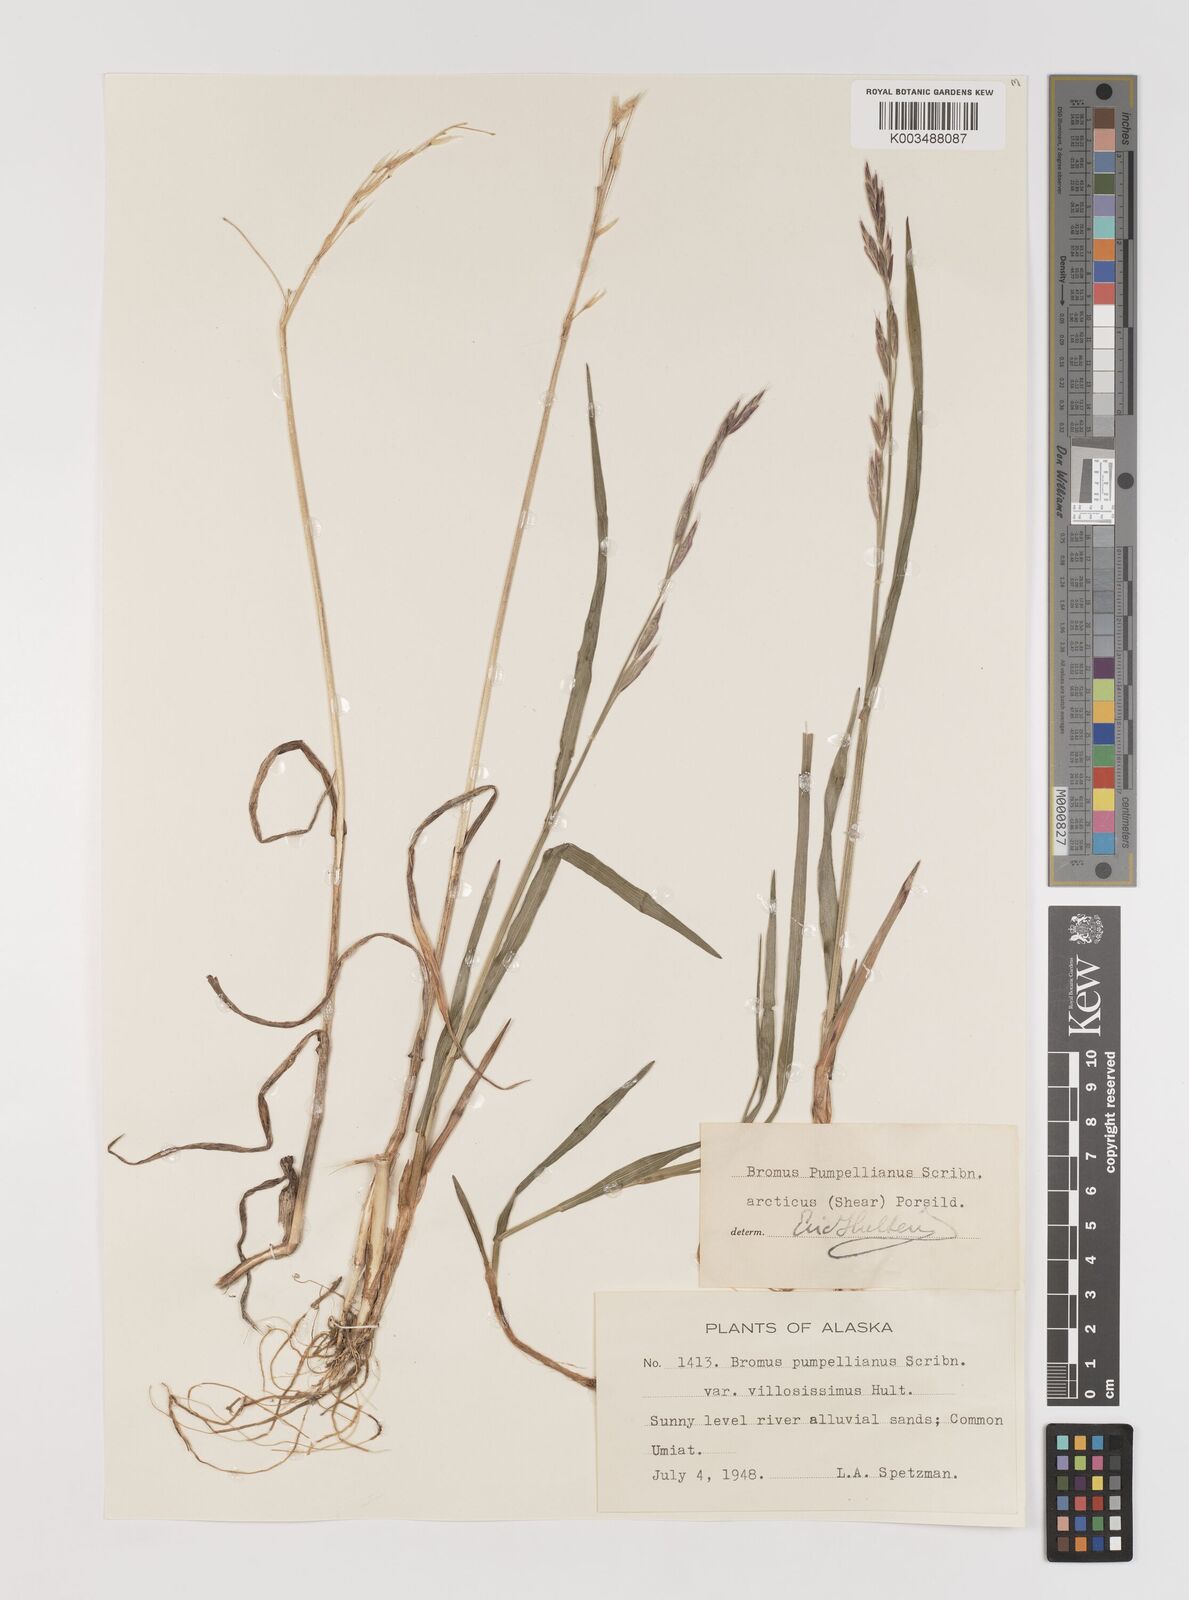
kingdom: Plantae
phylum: Tracheophyta
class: Liliopsida
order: Poales
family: Poaceae
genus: Bromus
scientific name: Bromus pumpellianus
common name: Pumpelly's brome
